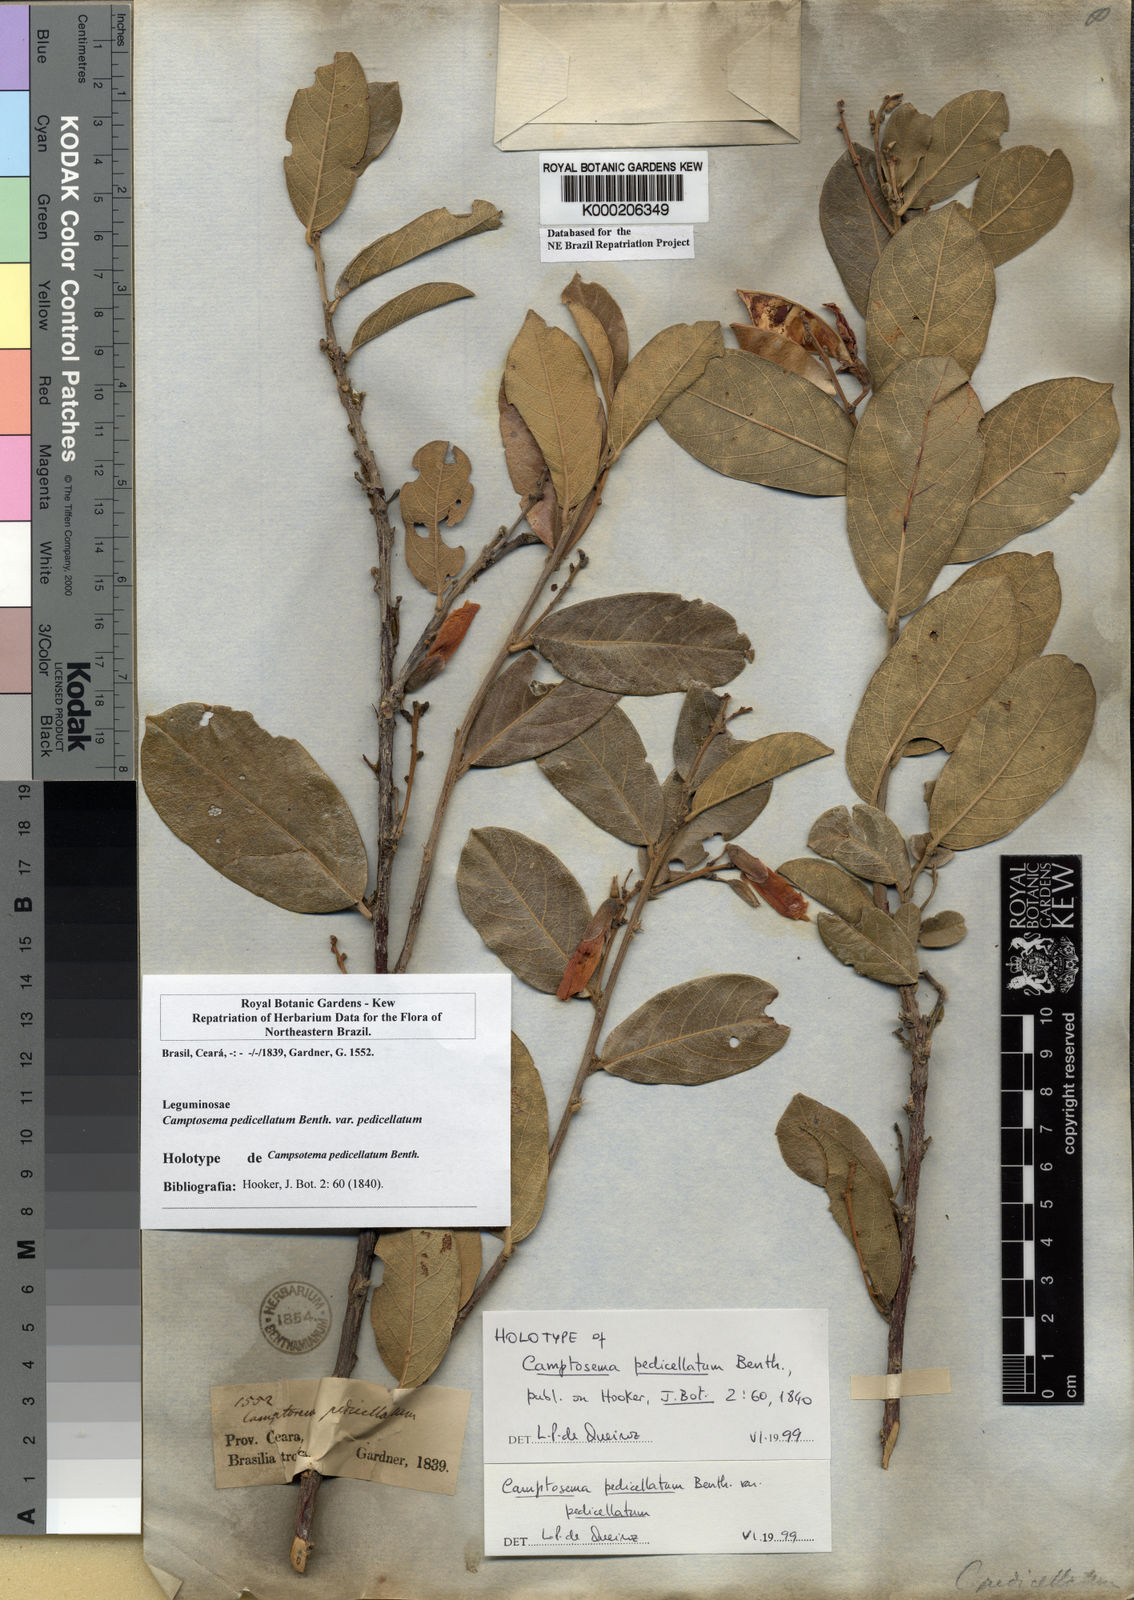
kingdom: Plantae
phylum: Tracheophyta
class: Magnoliopsida
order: Fabales
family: Fabaceae
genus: Camptosema
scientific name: Camptosema pedicellatum
